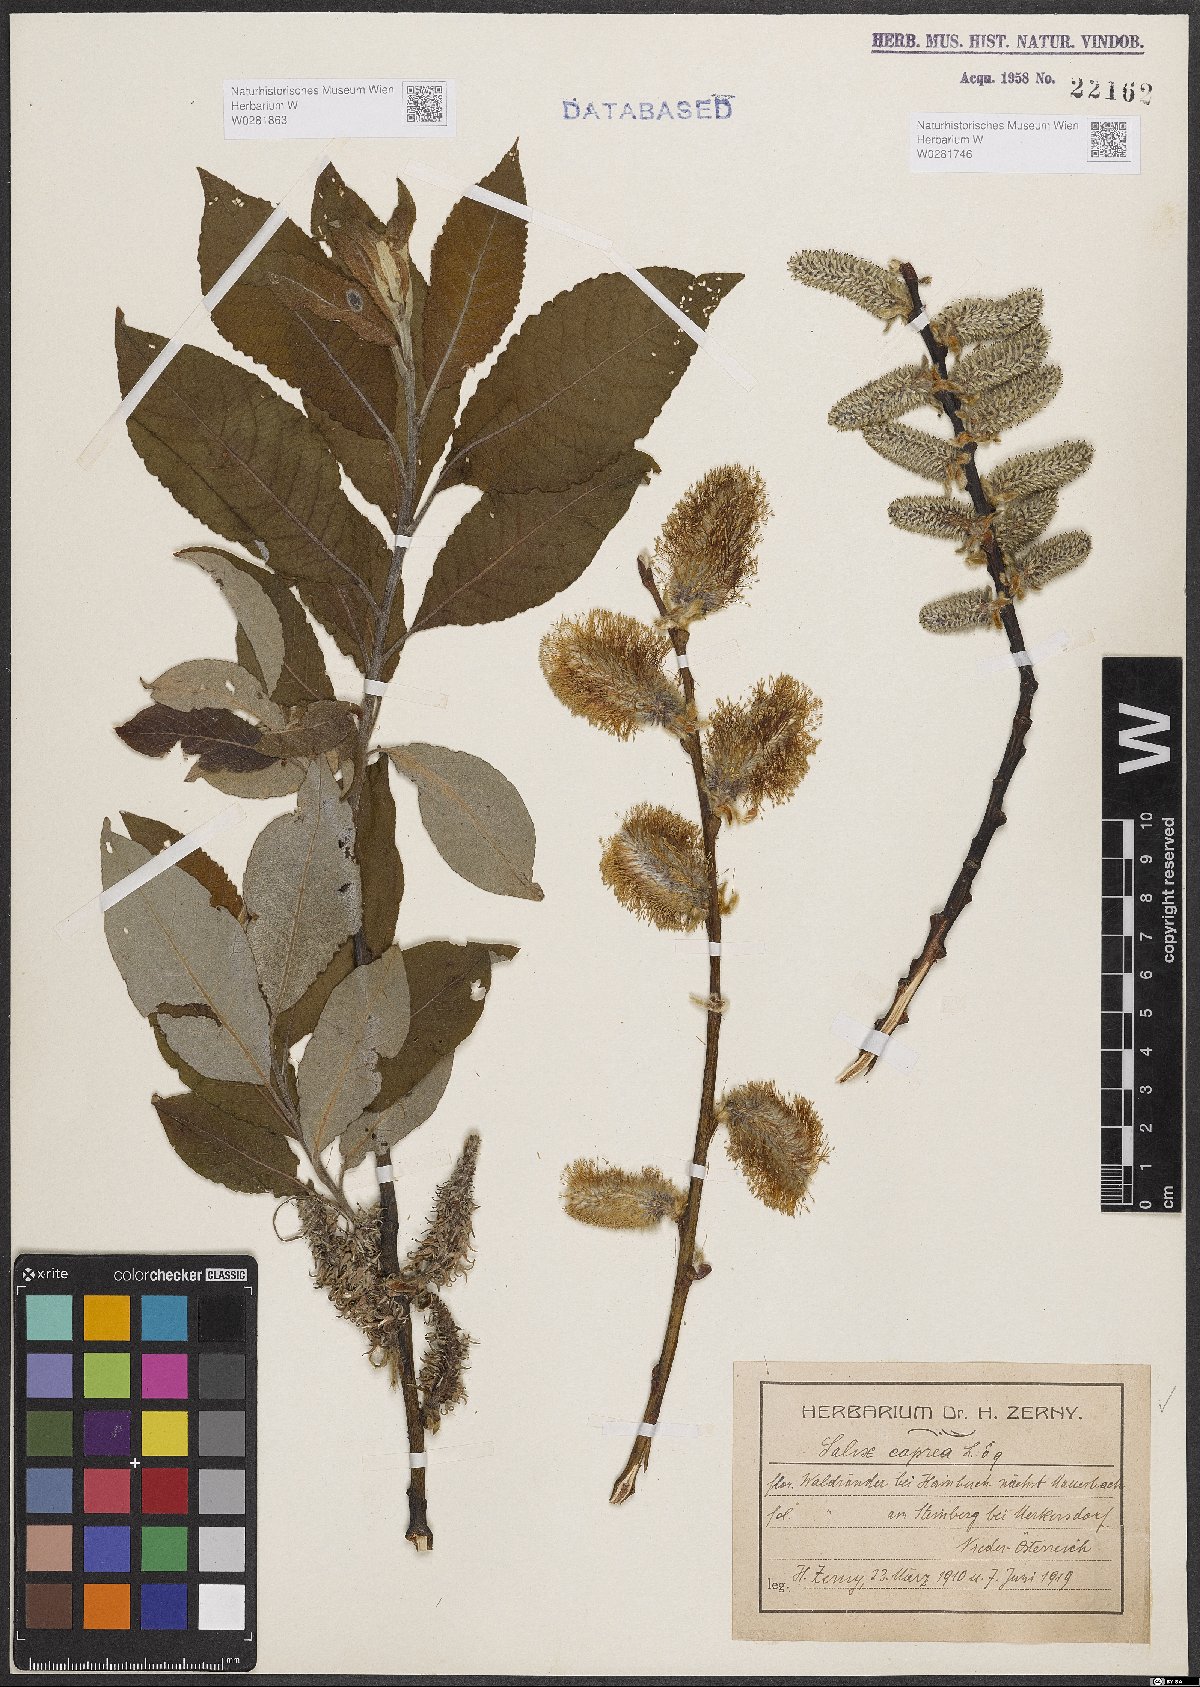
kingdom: Plantae
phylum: Tracheophyta
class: Magnoliopsida
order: Malpighiales
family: Salicaceae
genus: Salix
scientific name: Salix caprea
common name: Goat willow
